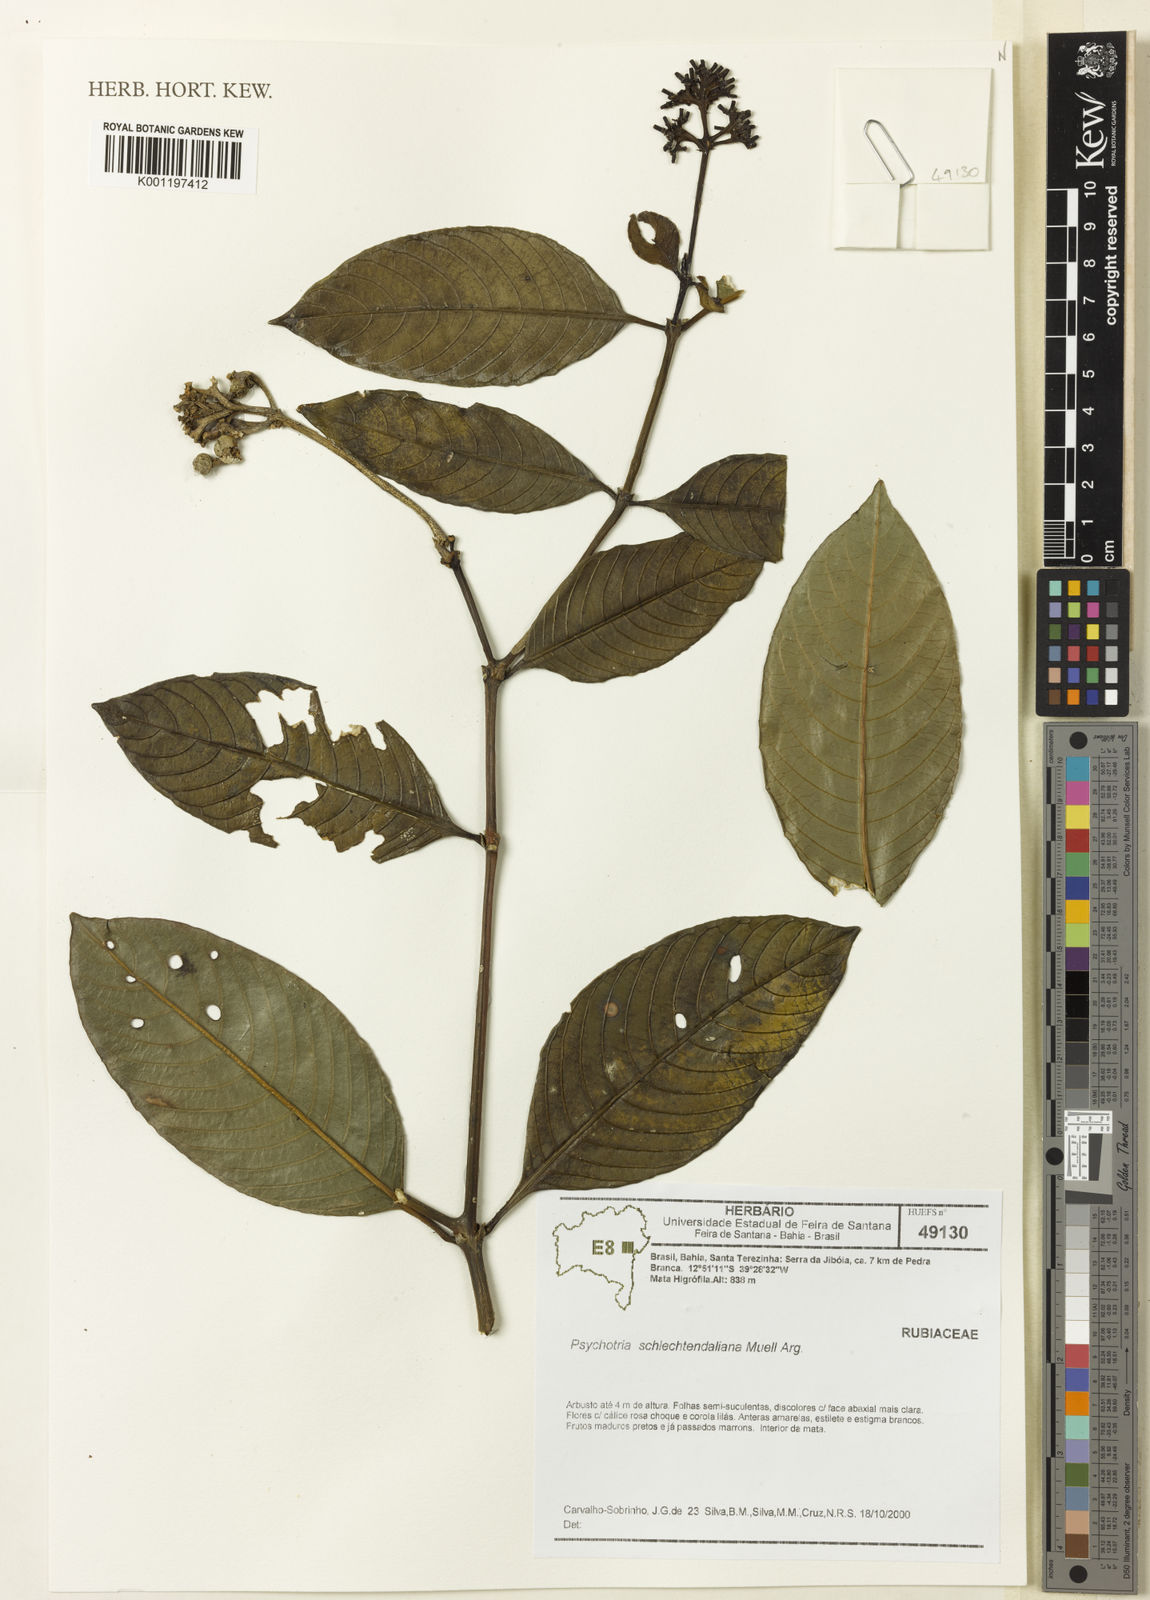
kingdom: Plantae
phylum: Tracheophyta
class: Magnoliopsida
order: Gentianales
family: Rubiaceae
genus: Psychotria
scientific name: Psychotria
